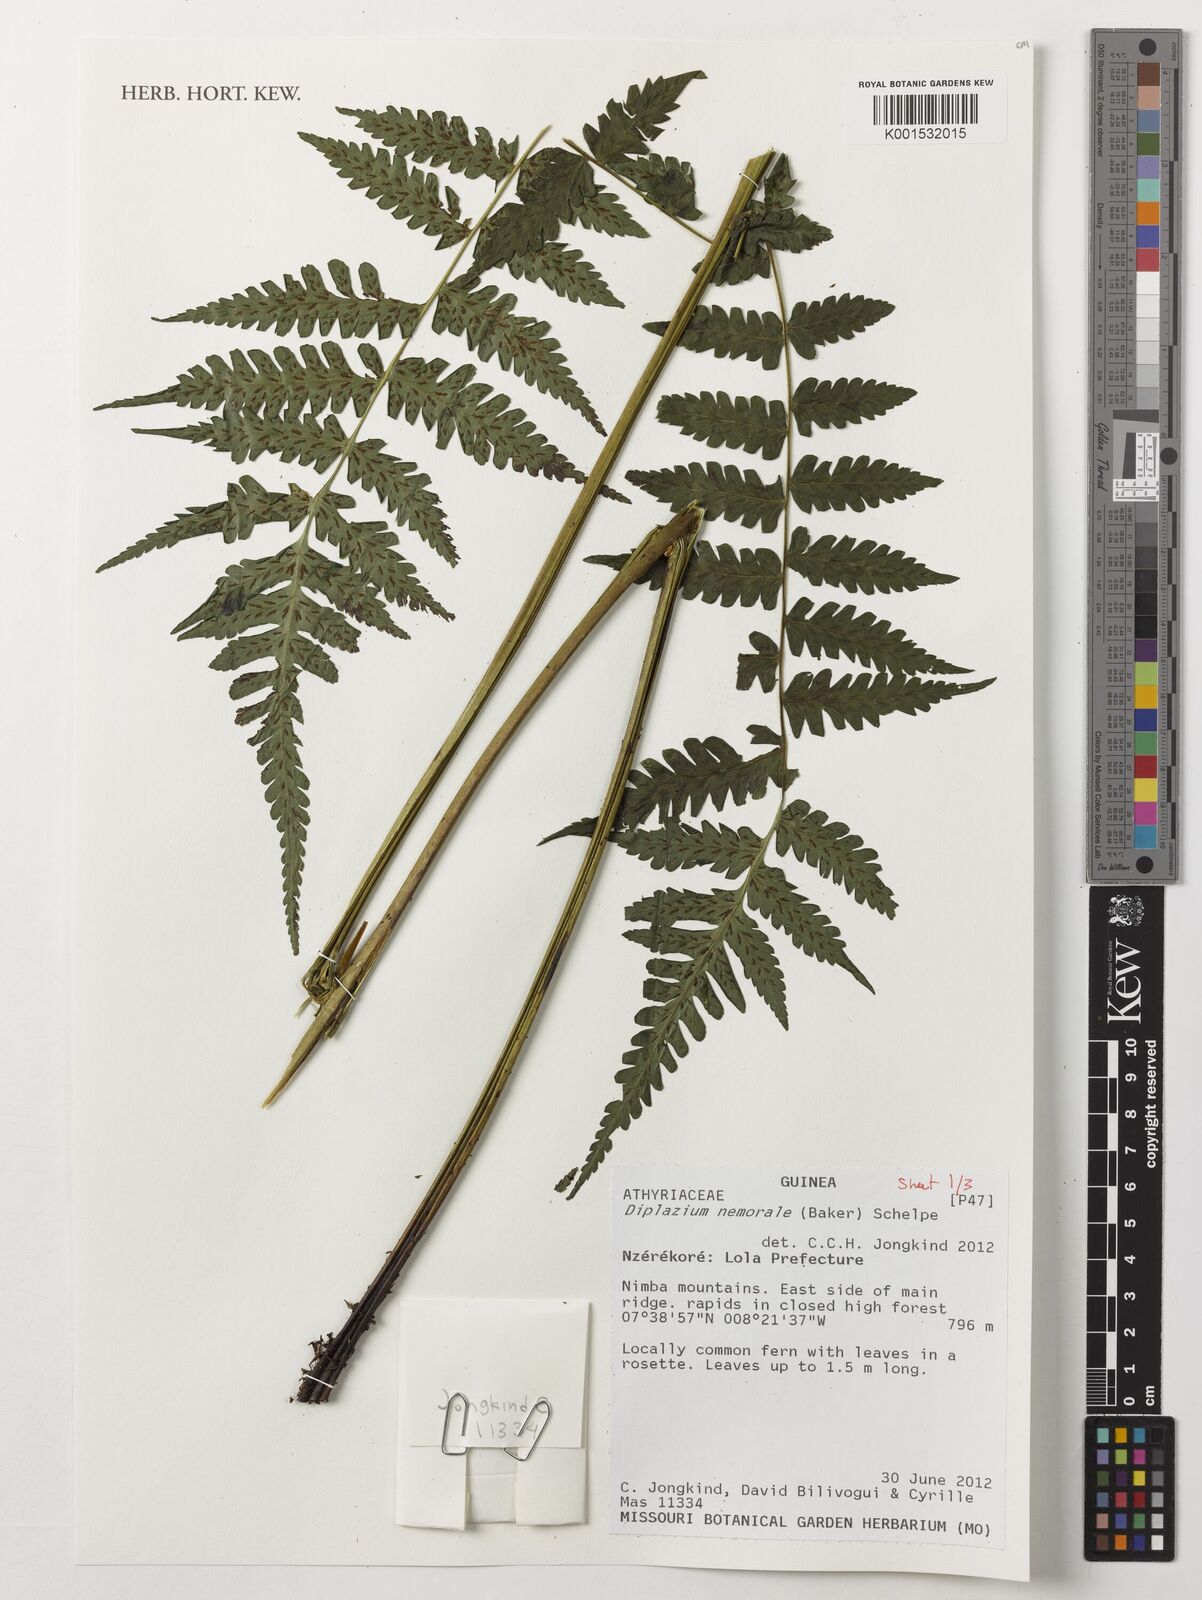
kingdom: Plantae
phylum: Tracheophyta
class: Polypodiopsida
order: Polypodiales
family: Athyriaceae
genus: Diplazium
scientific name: Diplazium nemorale
